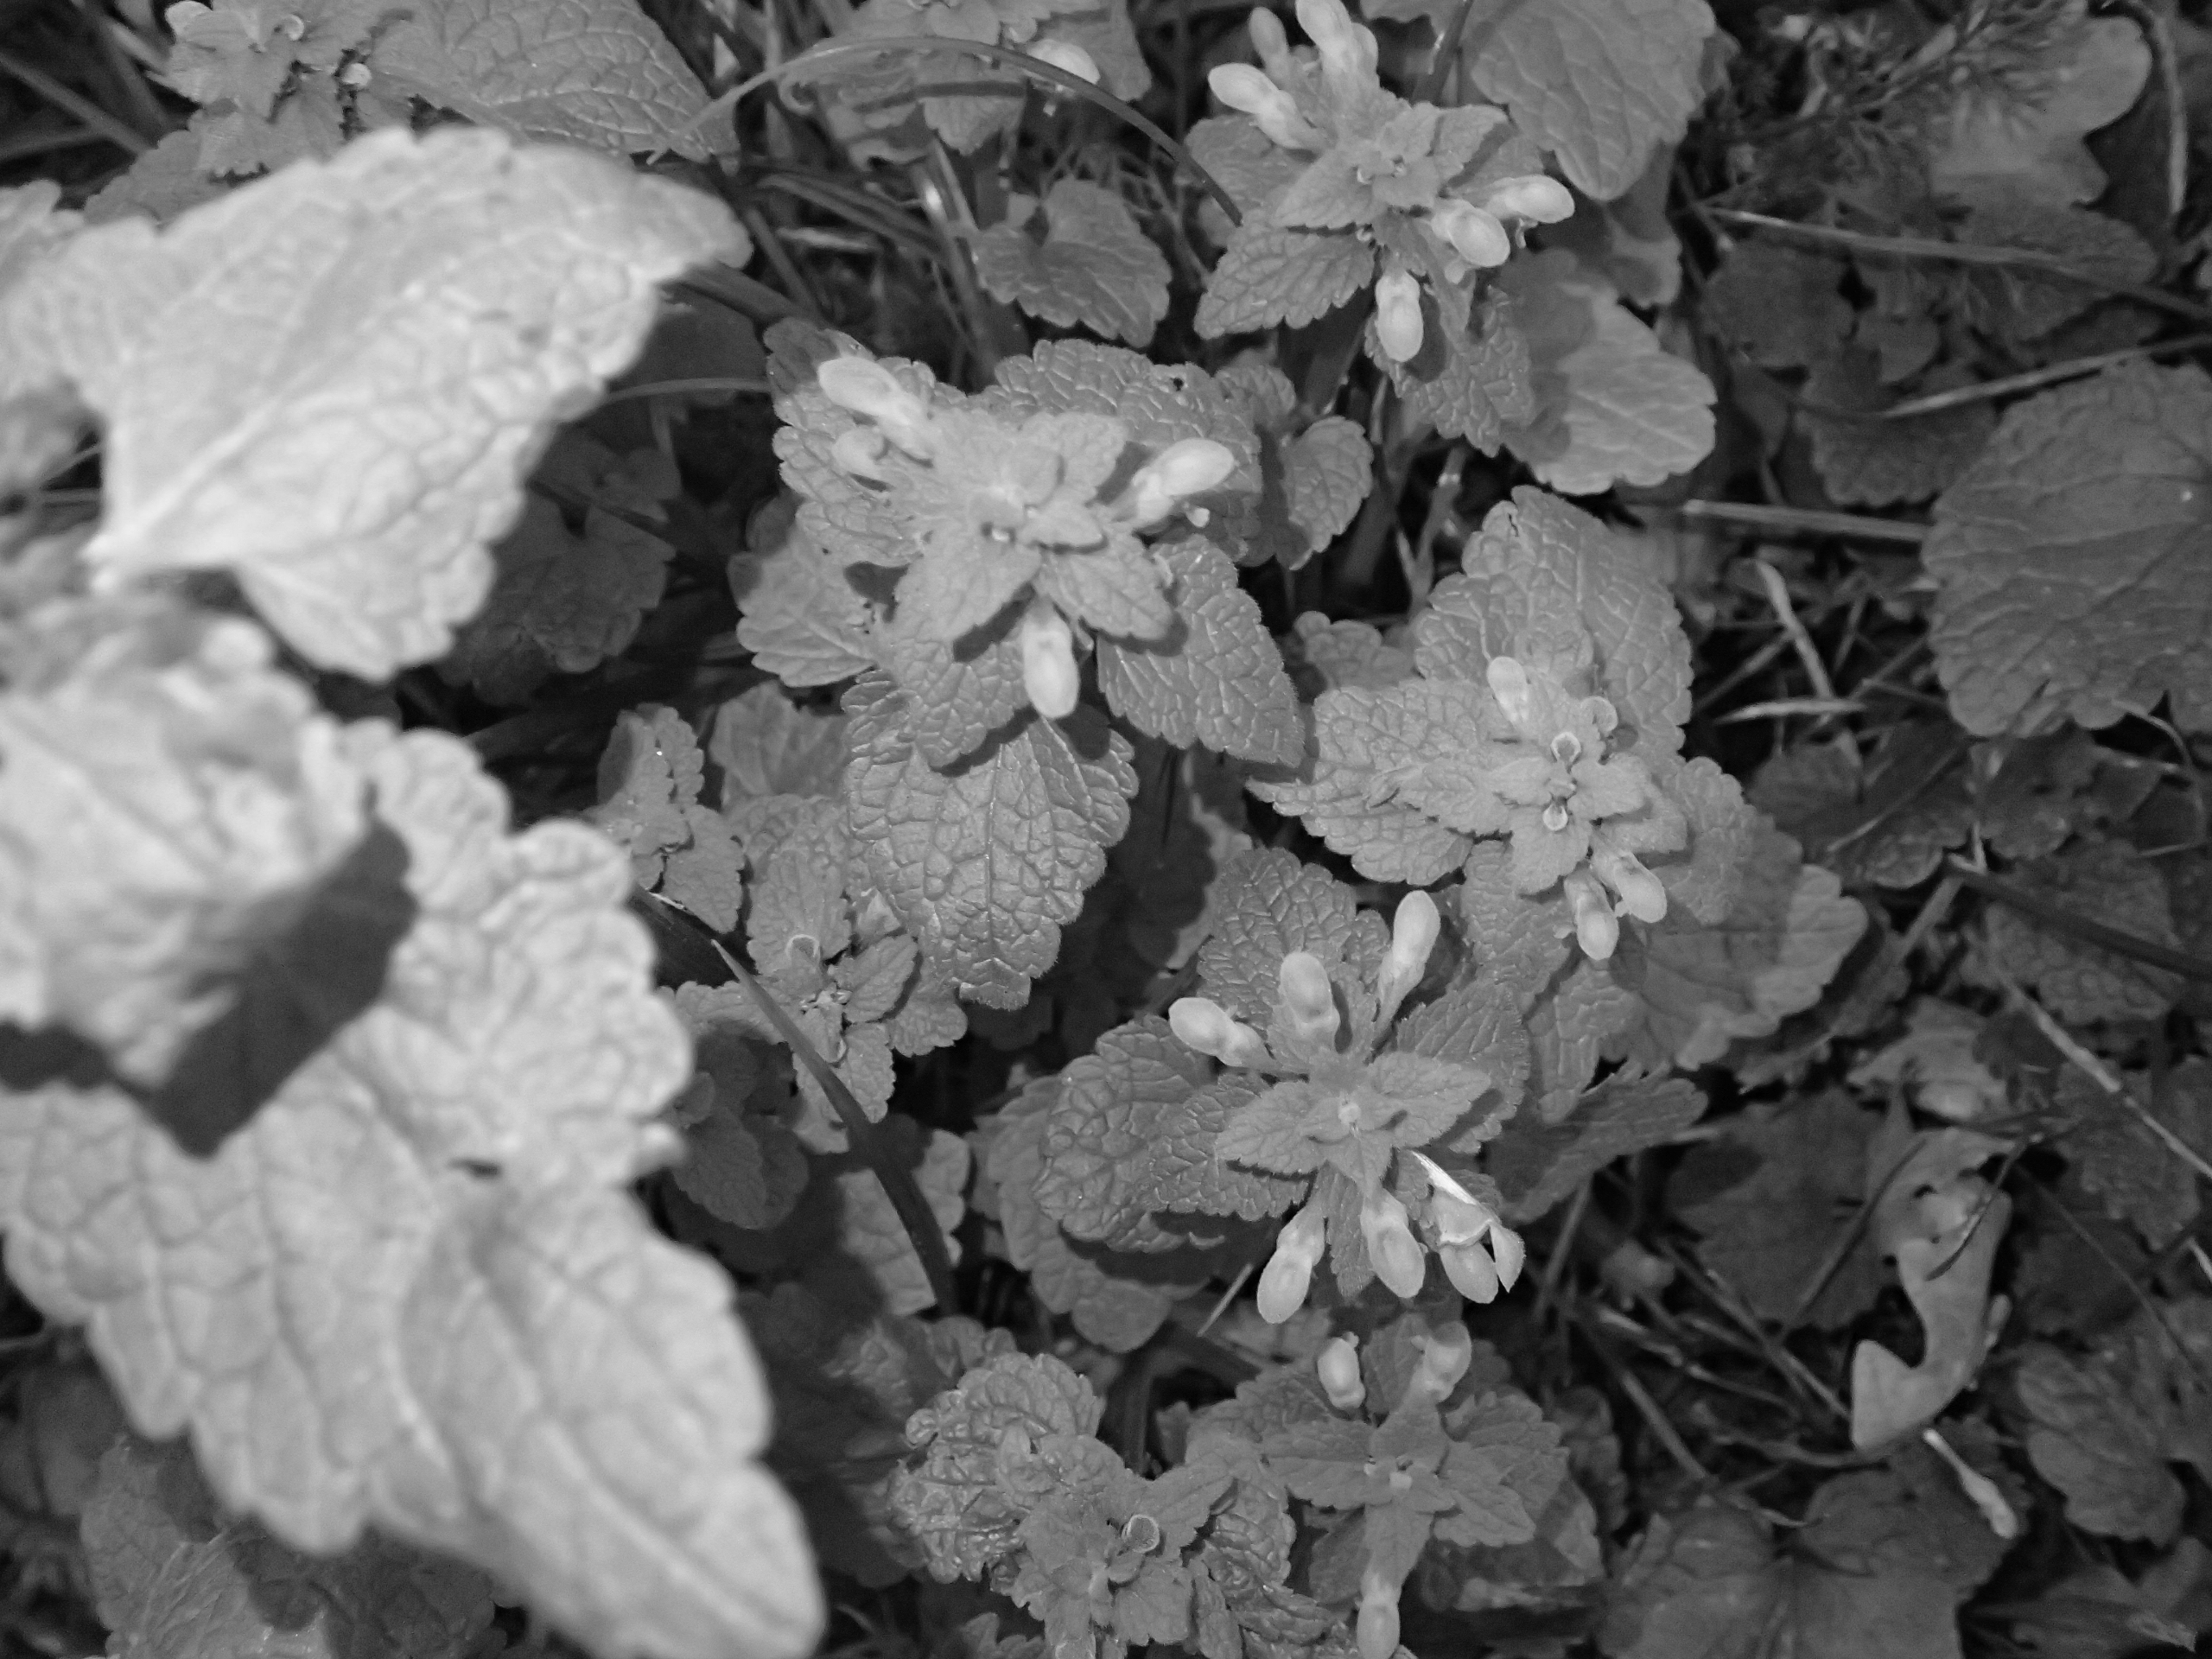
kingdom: Plantae
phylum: Tracheophyta
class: Magnoliopsida
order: Lamiales
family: Lamiaceae
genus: Lamium
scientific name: Lamium purpureum
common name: Rød tvetand
